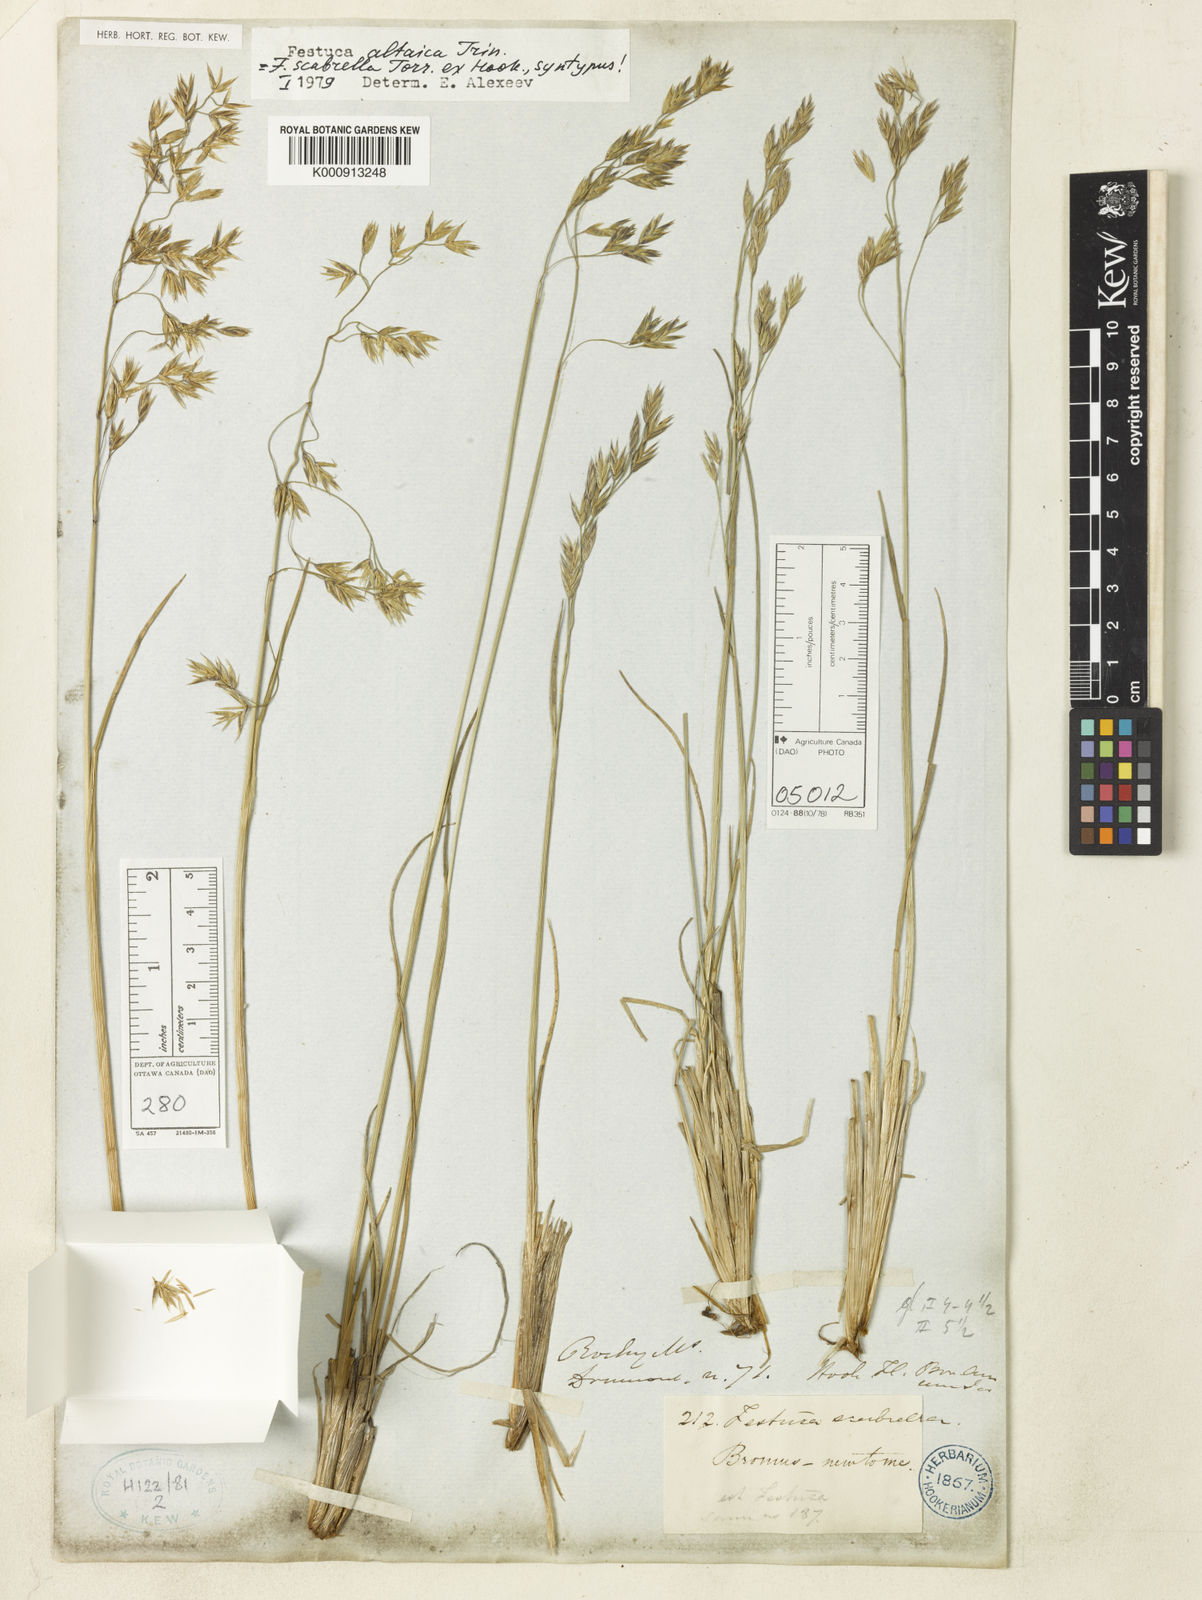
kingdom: Plantae
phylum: Tracheophyta
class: Liliopsida
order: Poales
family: Poaceae
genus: Festuca
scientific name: Festuca altaica
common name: Northern rough fescue
